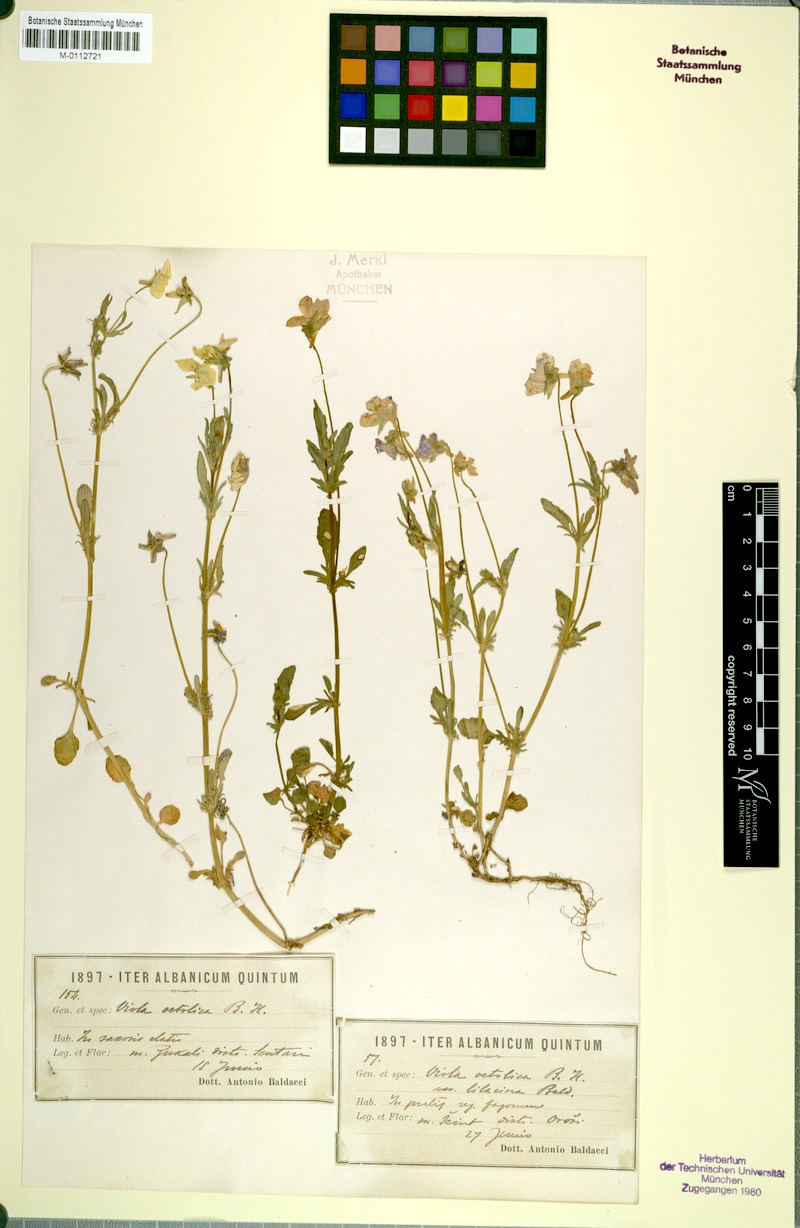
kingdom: Plantae
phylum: Tracheophyta
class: Magnoliopsida
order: Malpighiales
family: Violaceae
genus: Viola
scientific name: Viola aetolica
